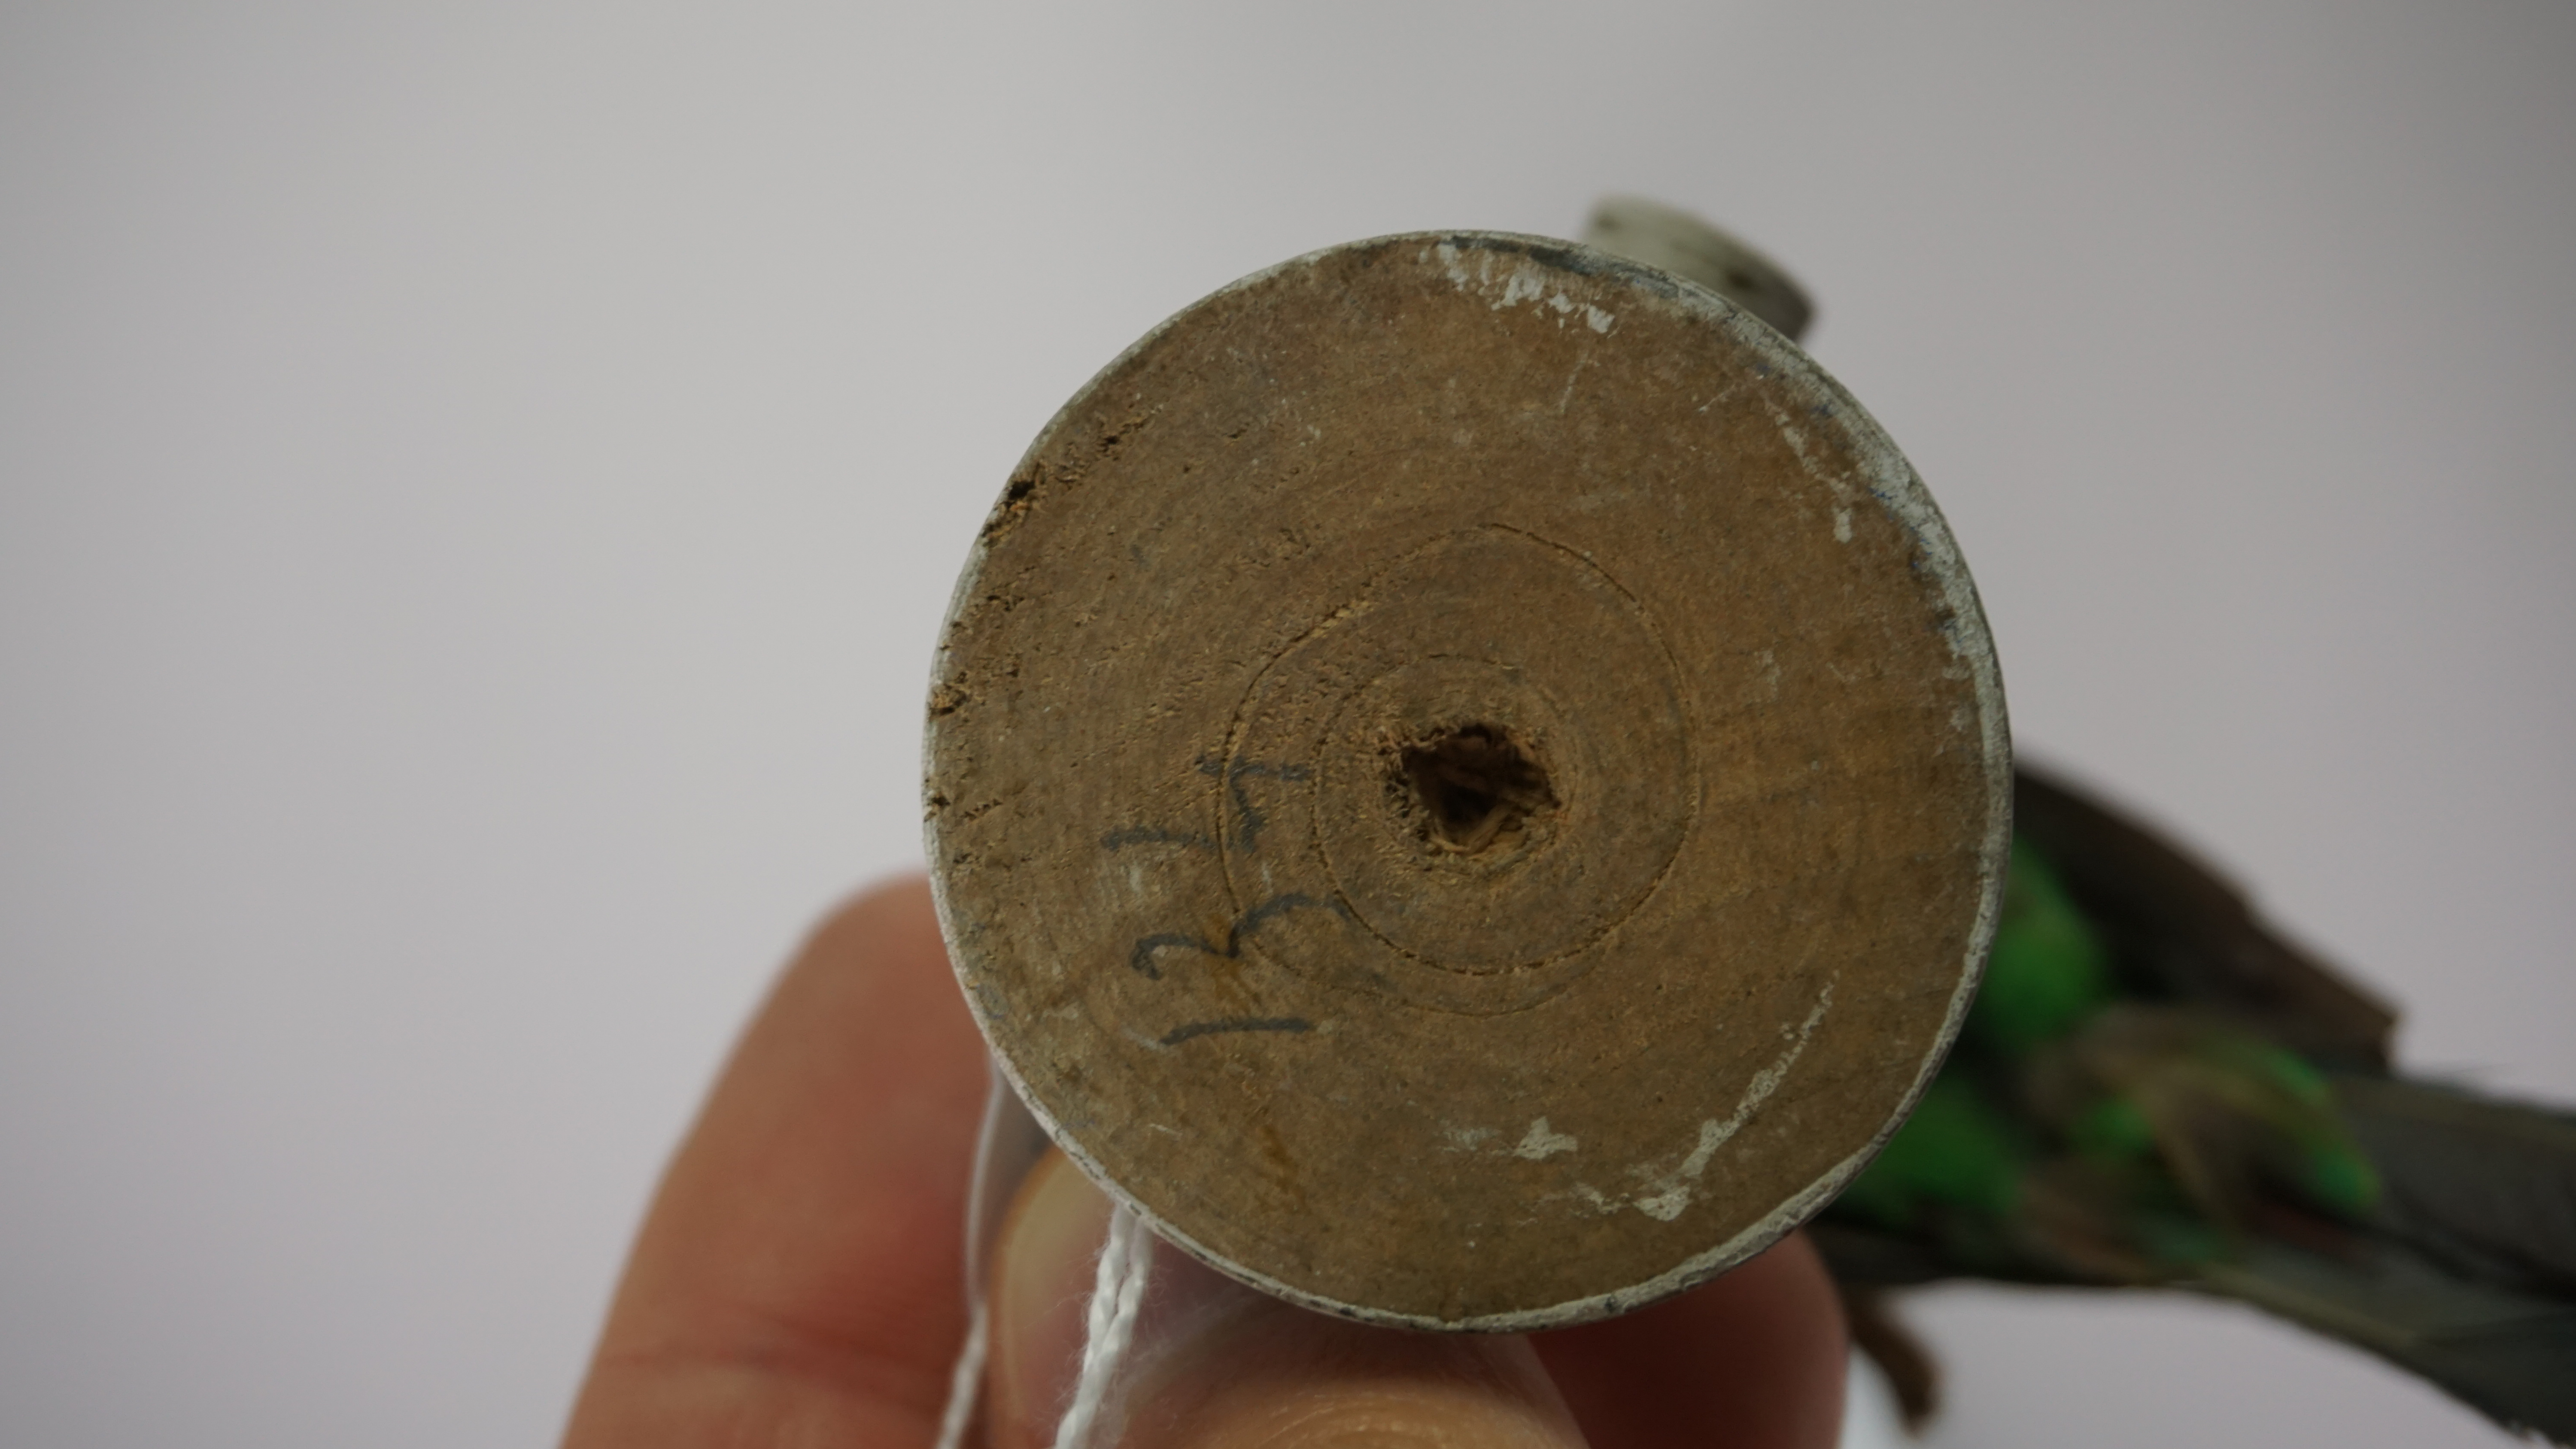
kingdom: Animalia
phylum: Chordata
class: Aves
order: Passeriformes
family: Thraupidae
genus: Tangara
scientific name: Tangara seledon
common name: Green-headed tanager
